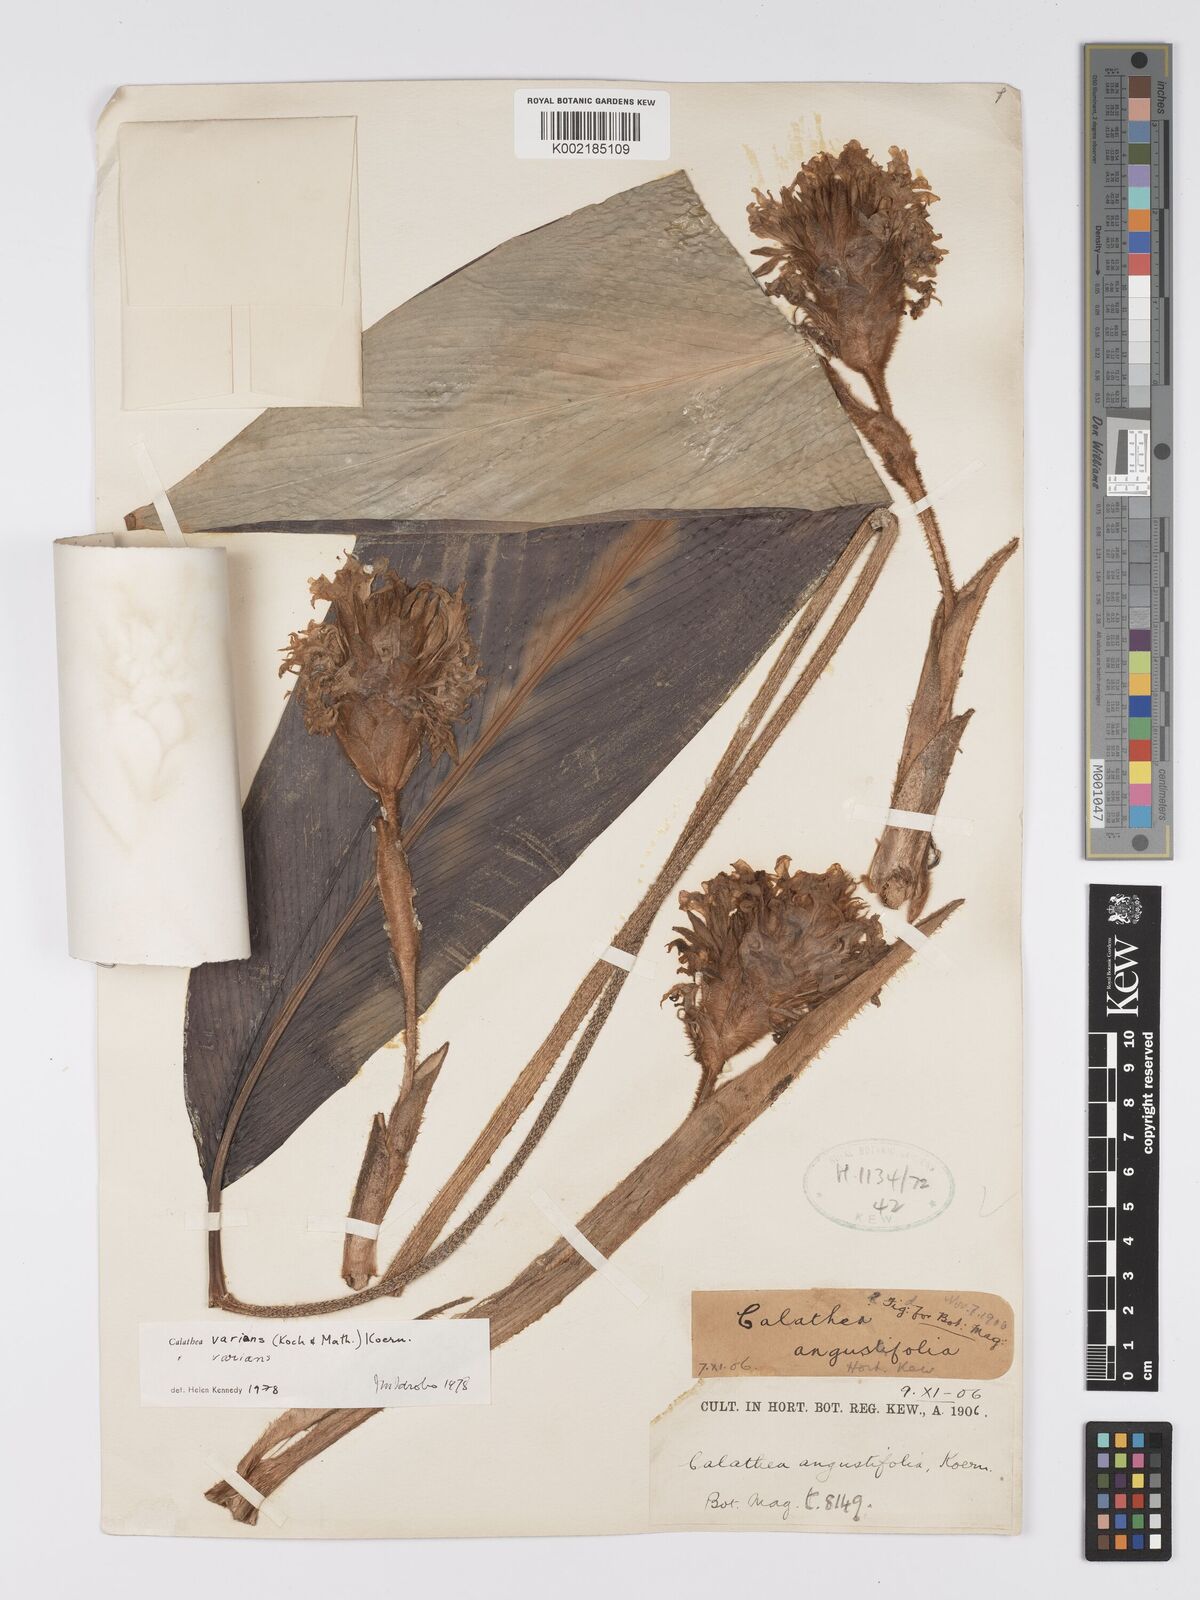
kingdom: Plantae
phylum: Tracheophyta
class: Liliopsida
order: Zingiberales
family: Marantaceae
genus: Goeppertia
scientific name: Goeppertia varians
